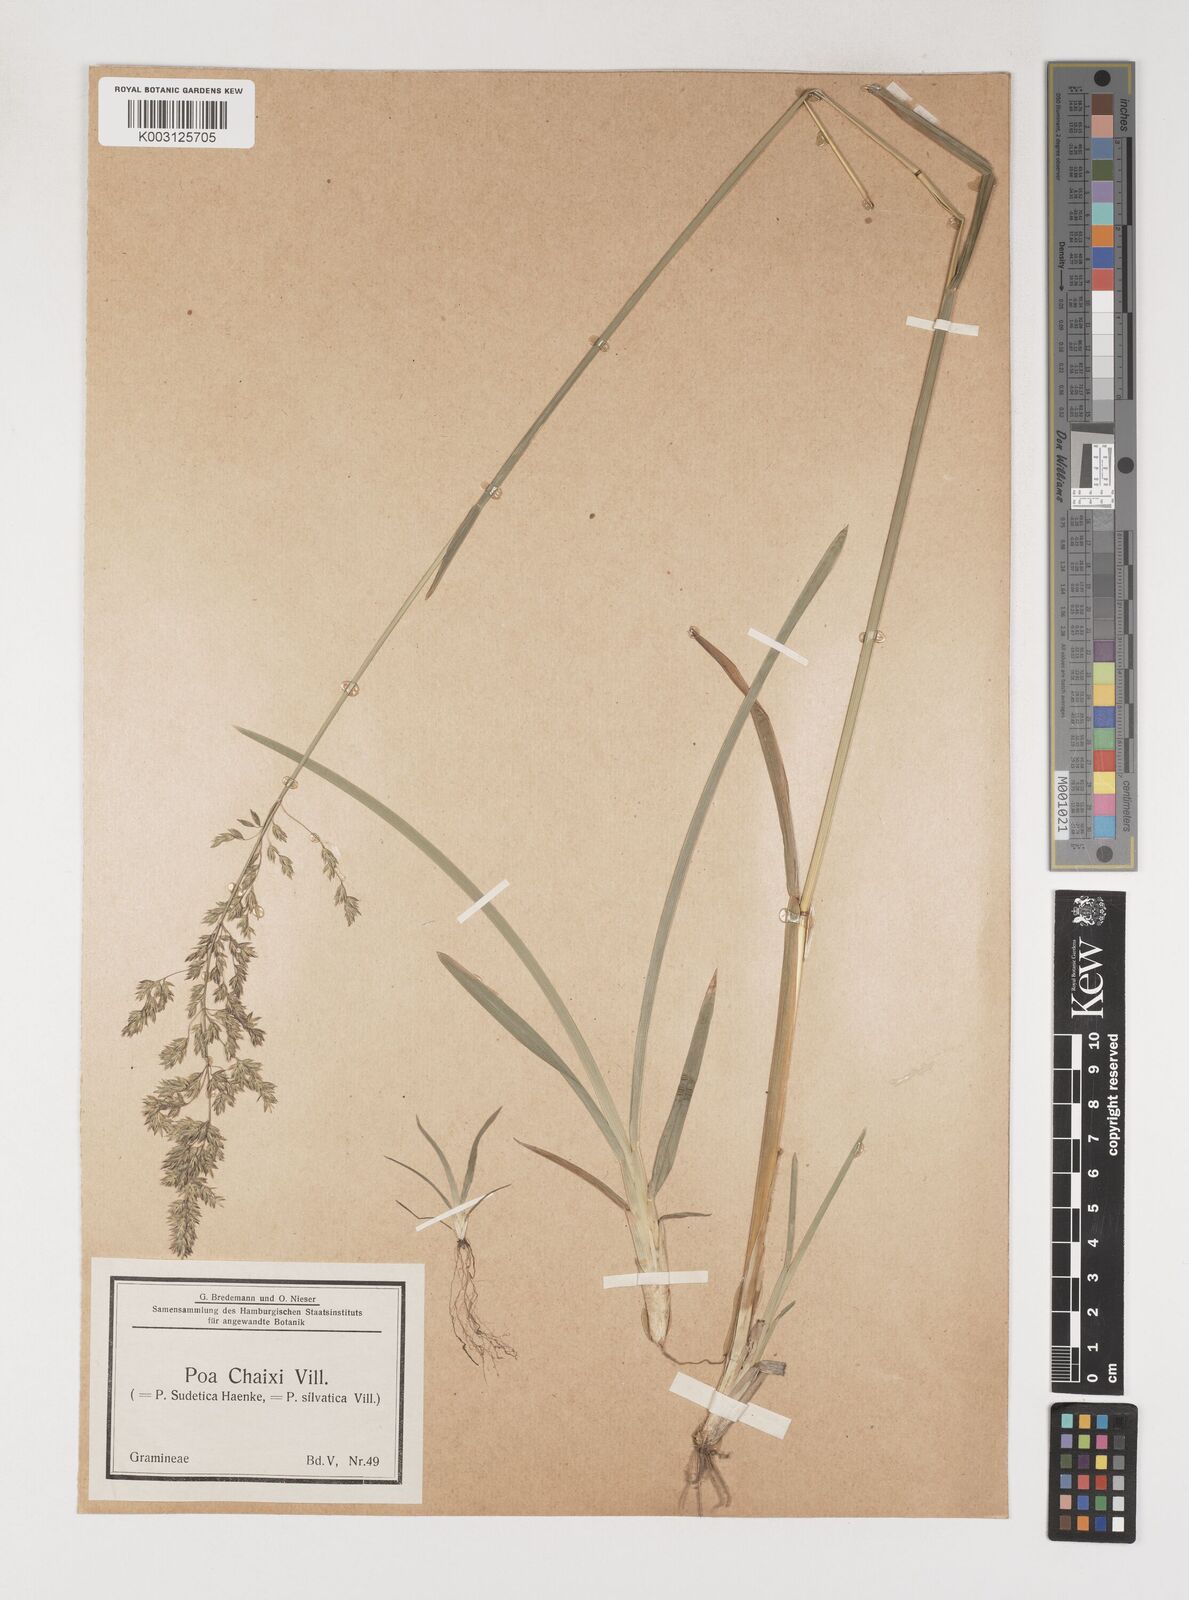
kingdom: Plantae
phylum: Tracheophyta
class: Liliopsida
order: Poales
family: Poaceae
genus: Poa
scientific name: Poa chaixii
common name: Broad-leaved meadow-grass
